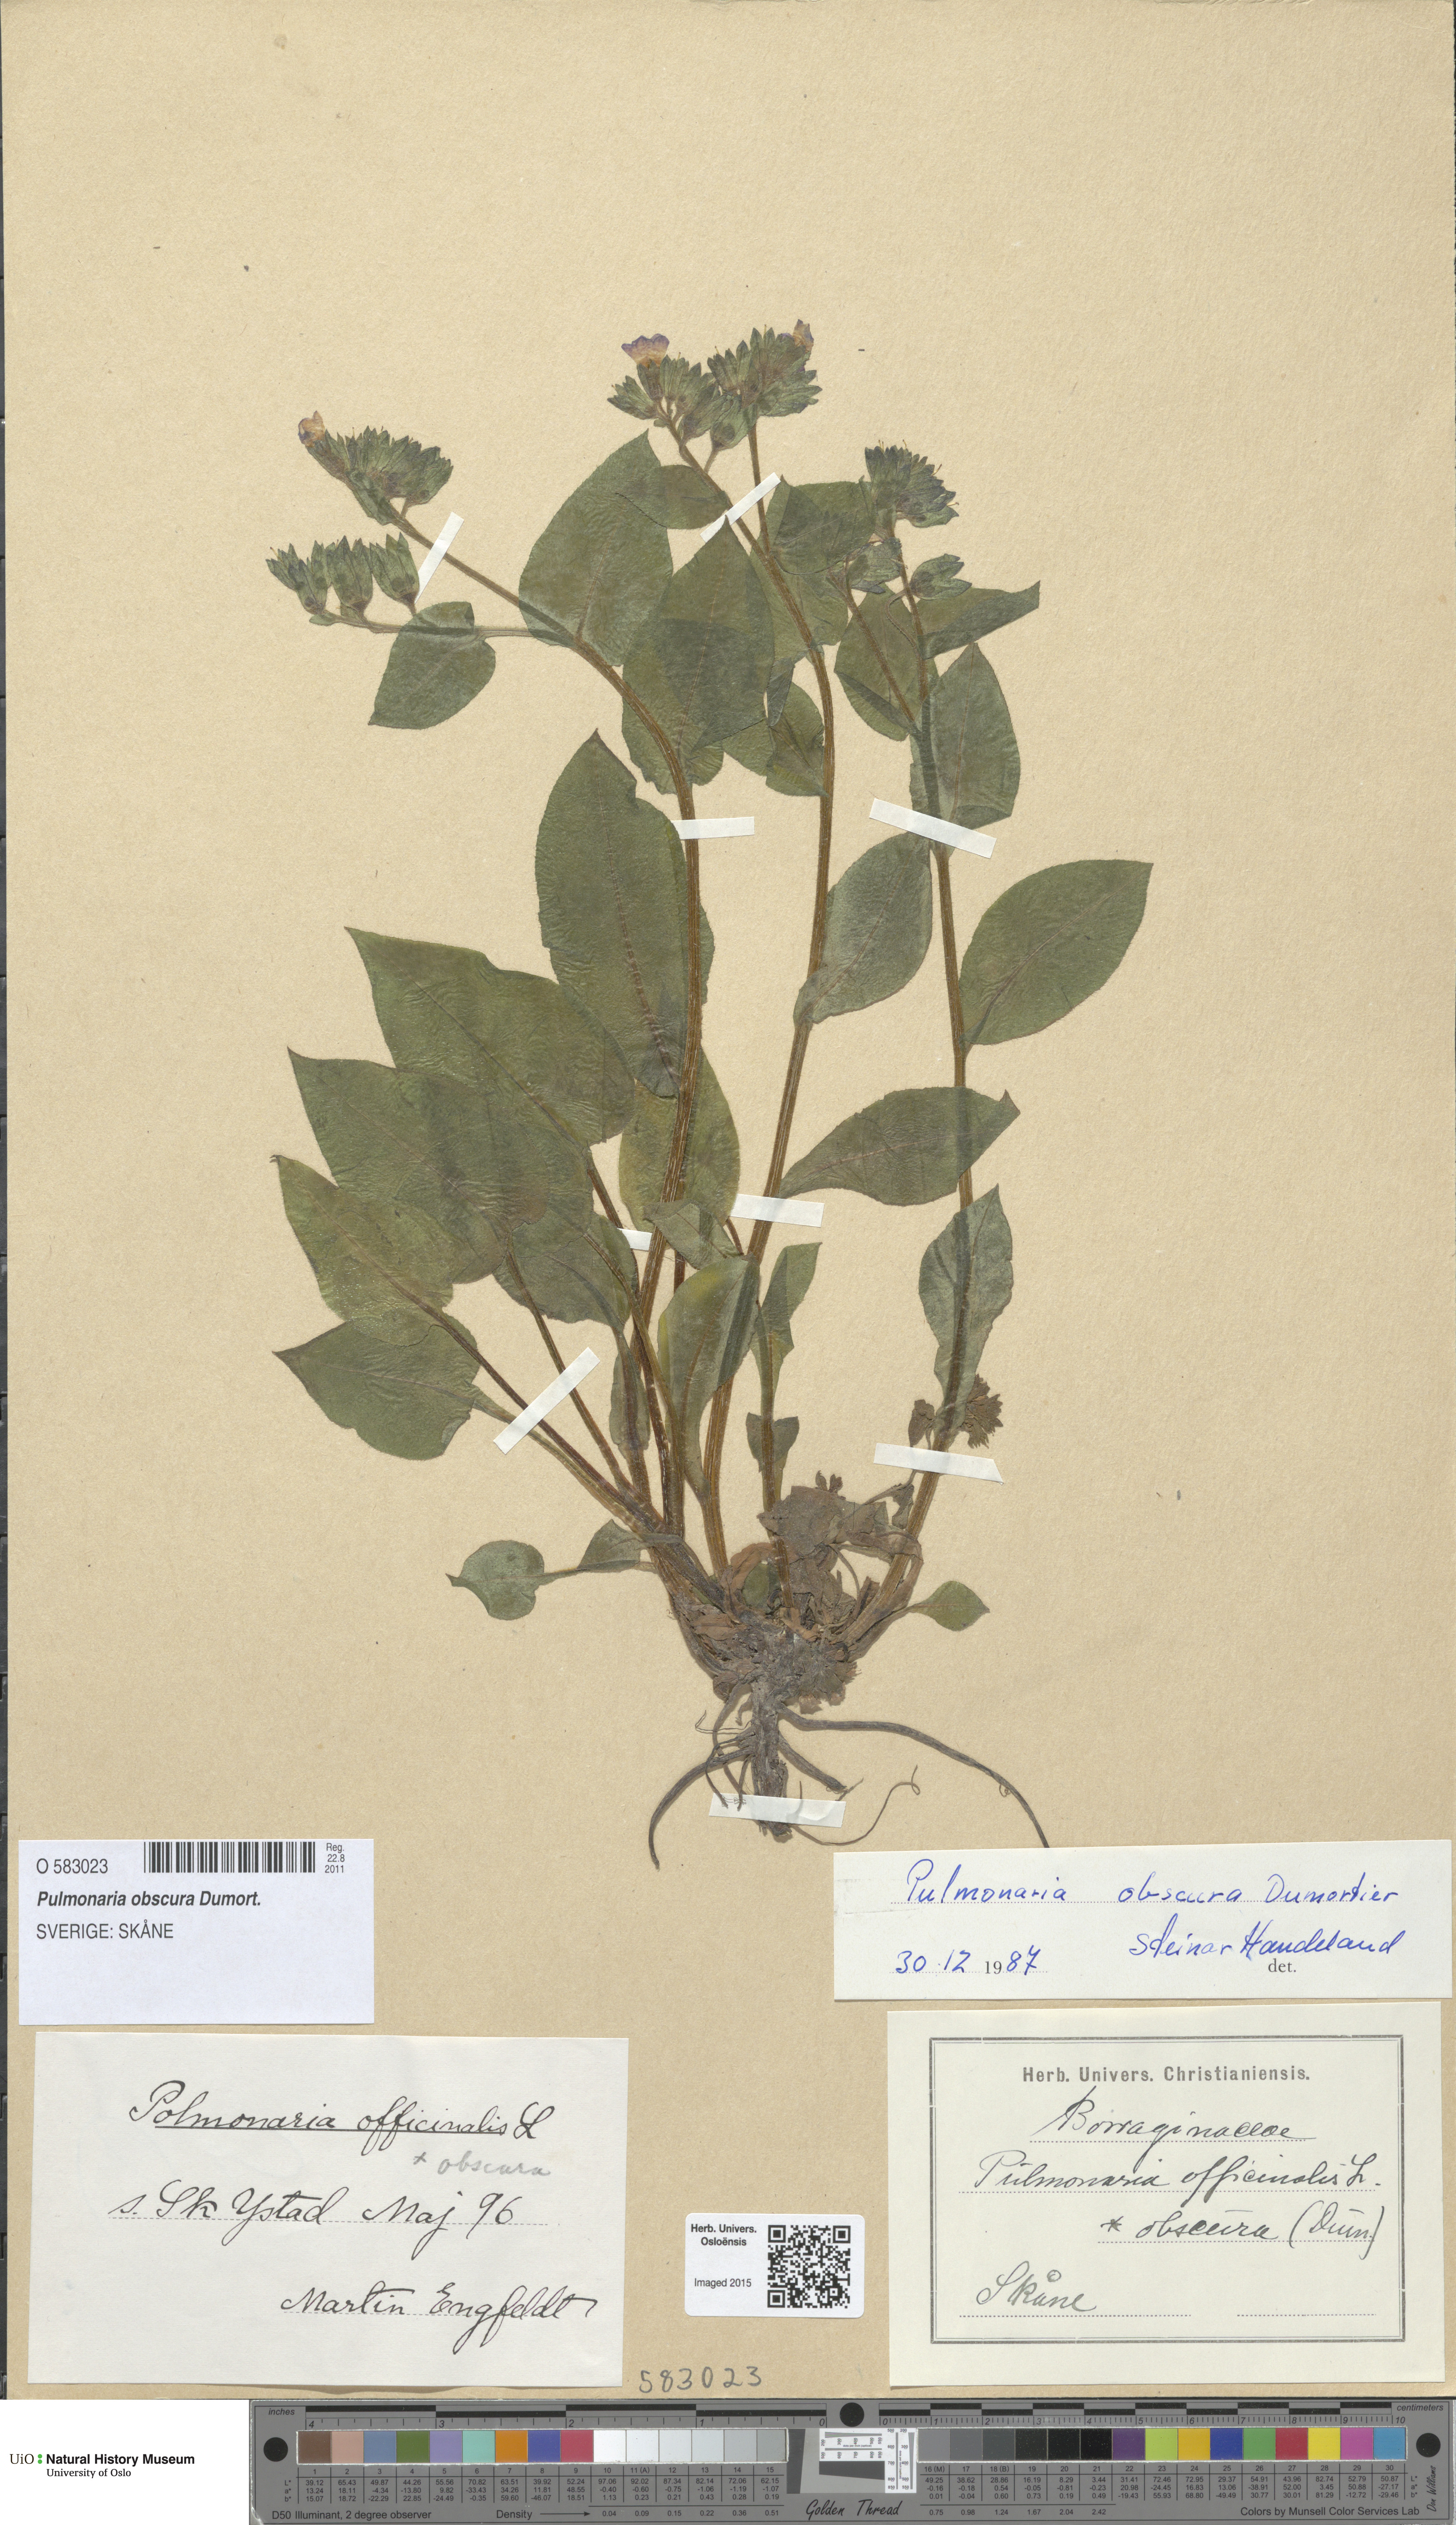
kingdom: Plantae
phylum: Tracheophyta
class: Magnoliopsida
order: Boraginales
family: Boraginaceae
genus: Pulmonaria
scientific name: Pulmonaria obscura
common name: Suffolk lungwort
